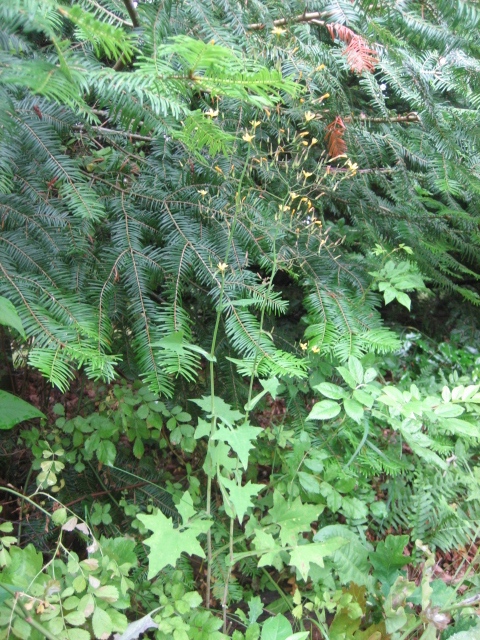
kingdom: Fungi
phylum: Basidiomycota
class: Pucciniomycetes
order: Pucciniales
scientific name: Pucciniales
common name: rustsvampeordenen
